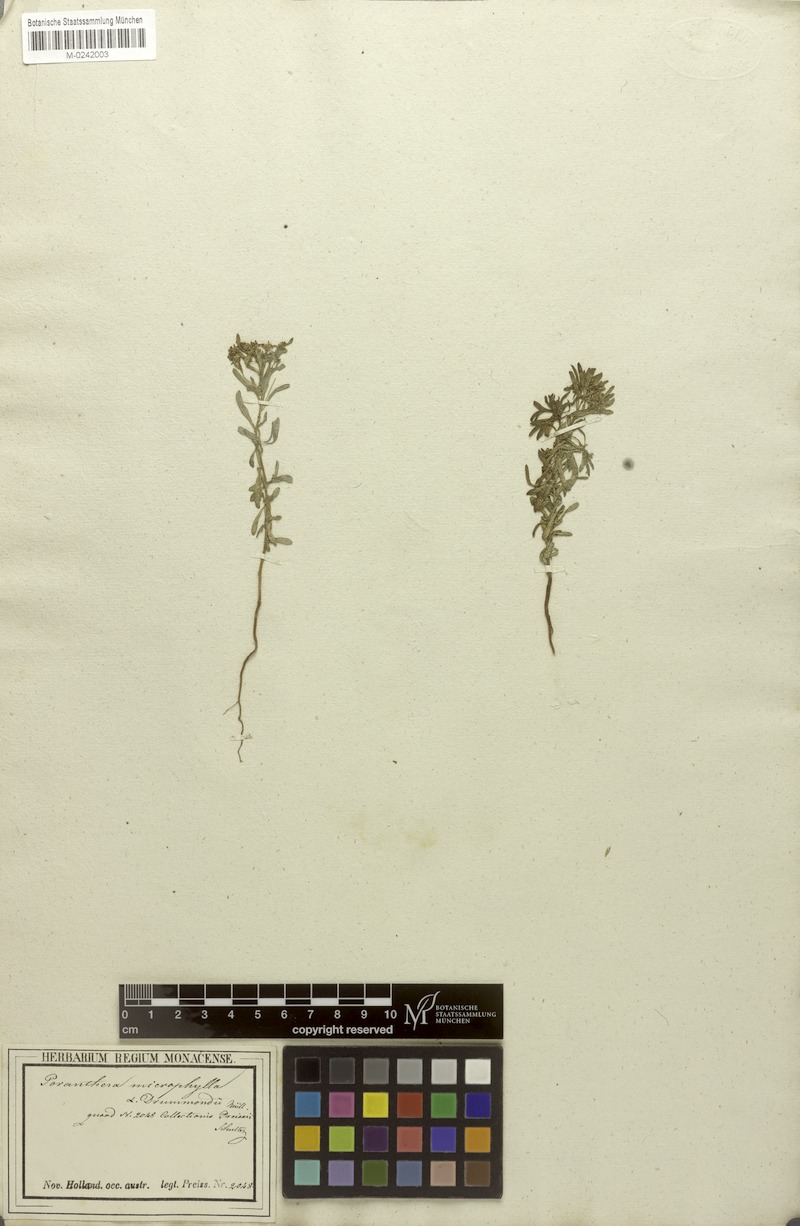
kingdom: Plantae
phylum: Tracheophyta
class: Magnoliopsida
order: Malpighiales
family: Phyllanthaceae
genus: Poranthera
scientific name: Poranthera drummondii
